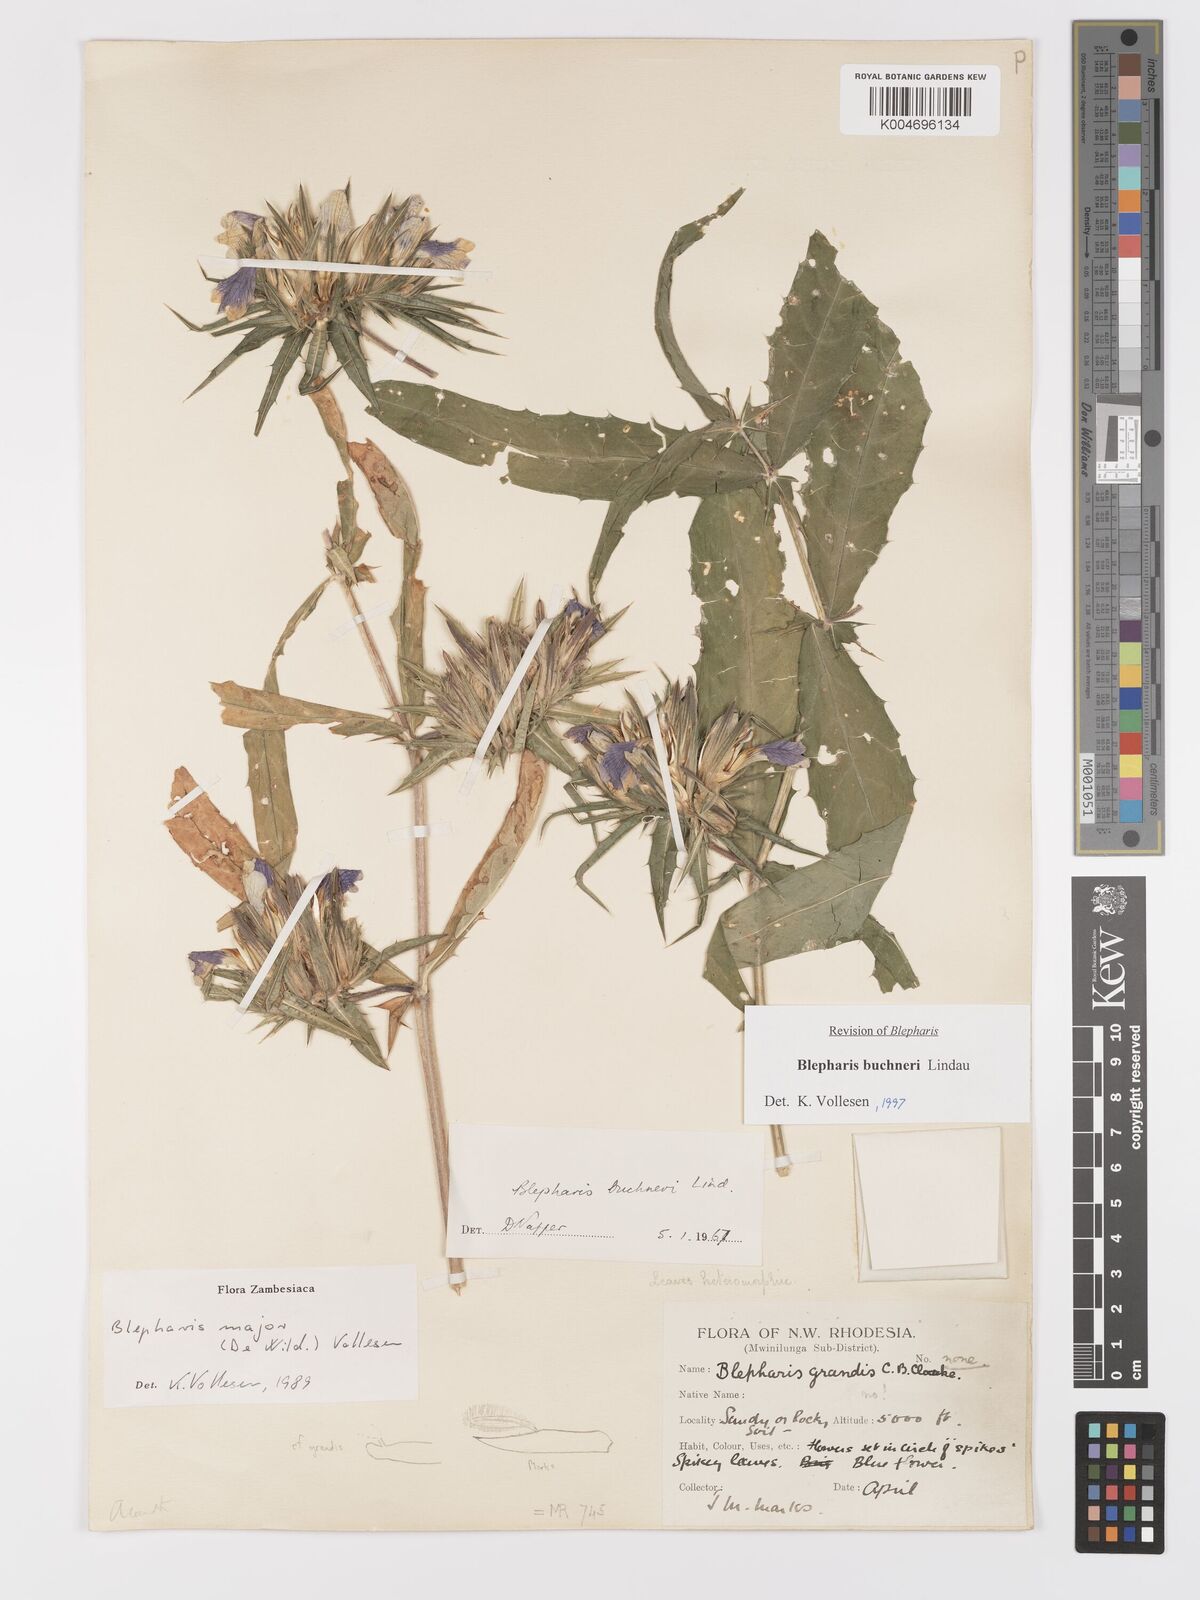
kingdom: Plantae
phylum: Tracheophyta
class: Magnoliopsida
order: Lamiales
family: Acanthaceae
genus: Blepharis
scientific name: Blepharis buchneri
